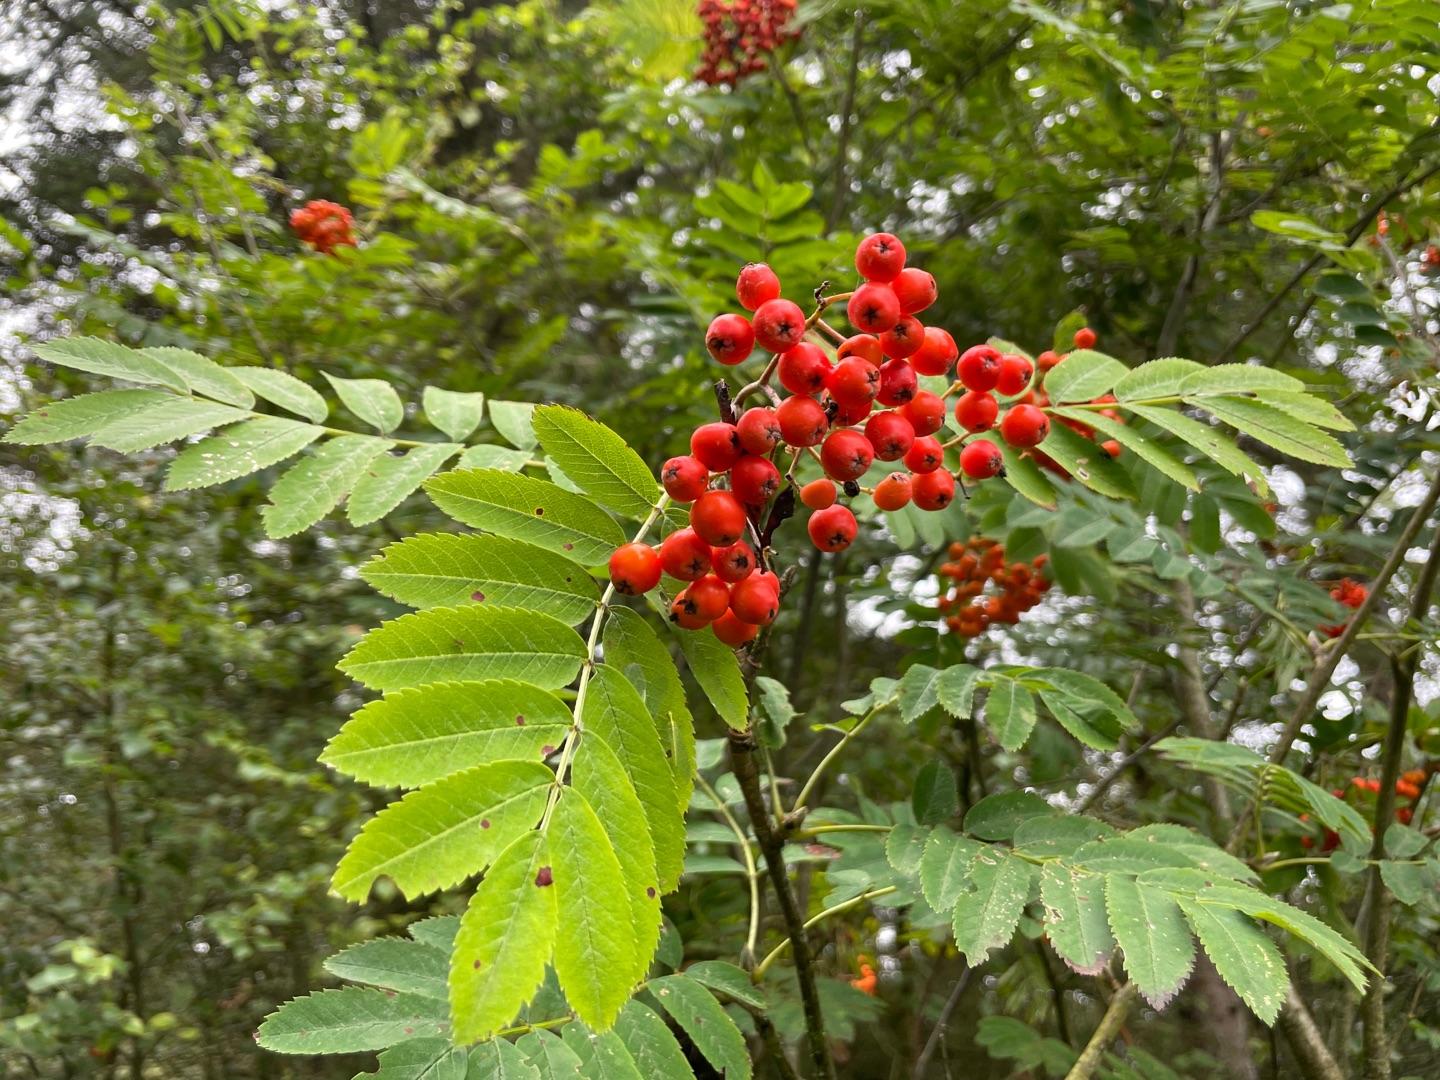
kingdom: Plantae
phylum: Tracheophyta
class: Magnoliopsida
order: Rosales
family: Rosaceae
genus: Sorbus
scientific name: Sorbus aucuparia
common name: Almindelig røn
